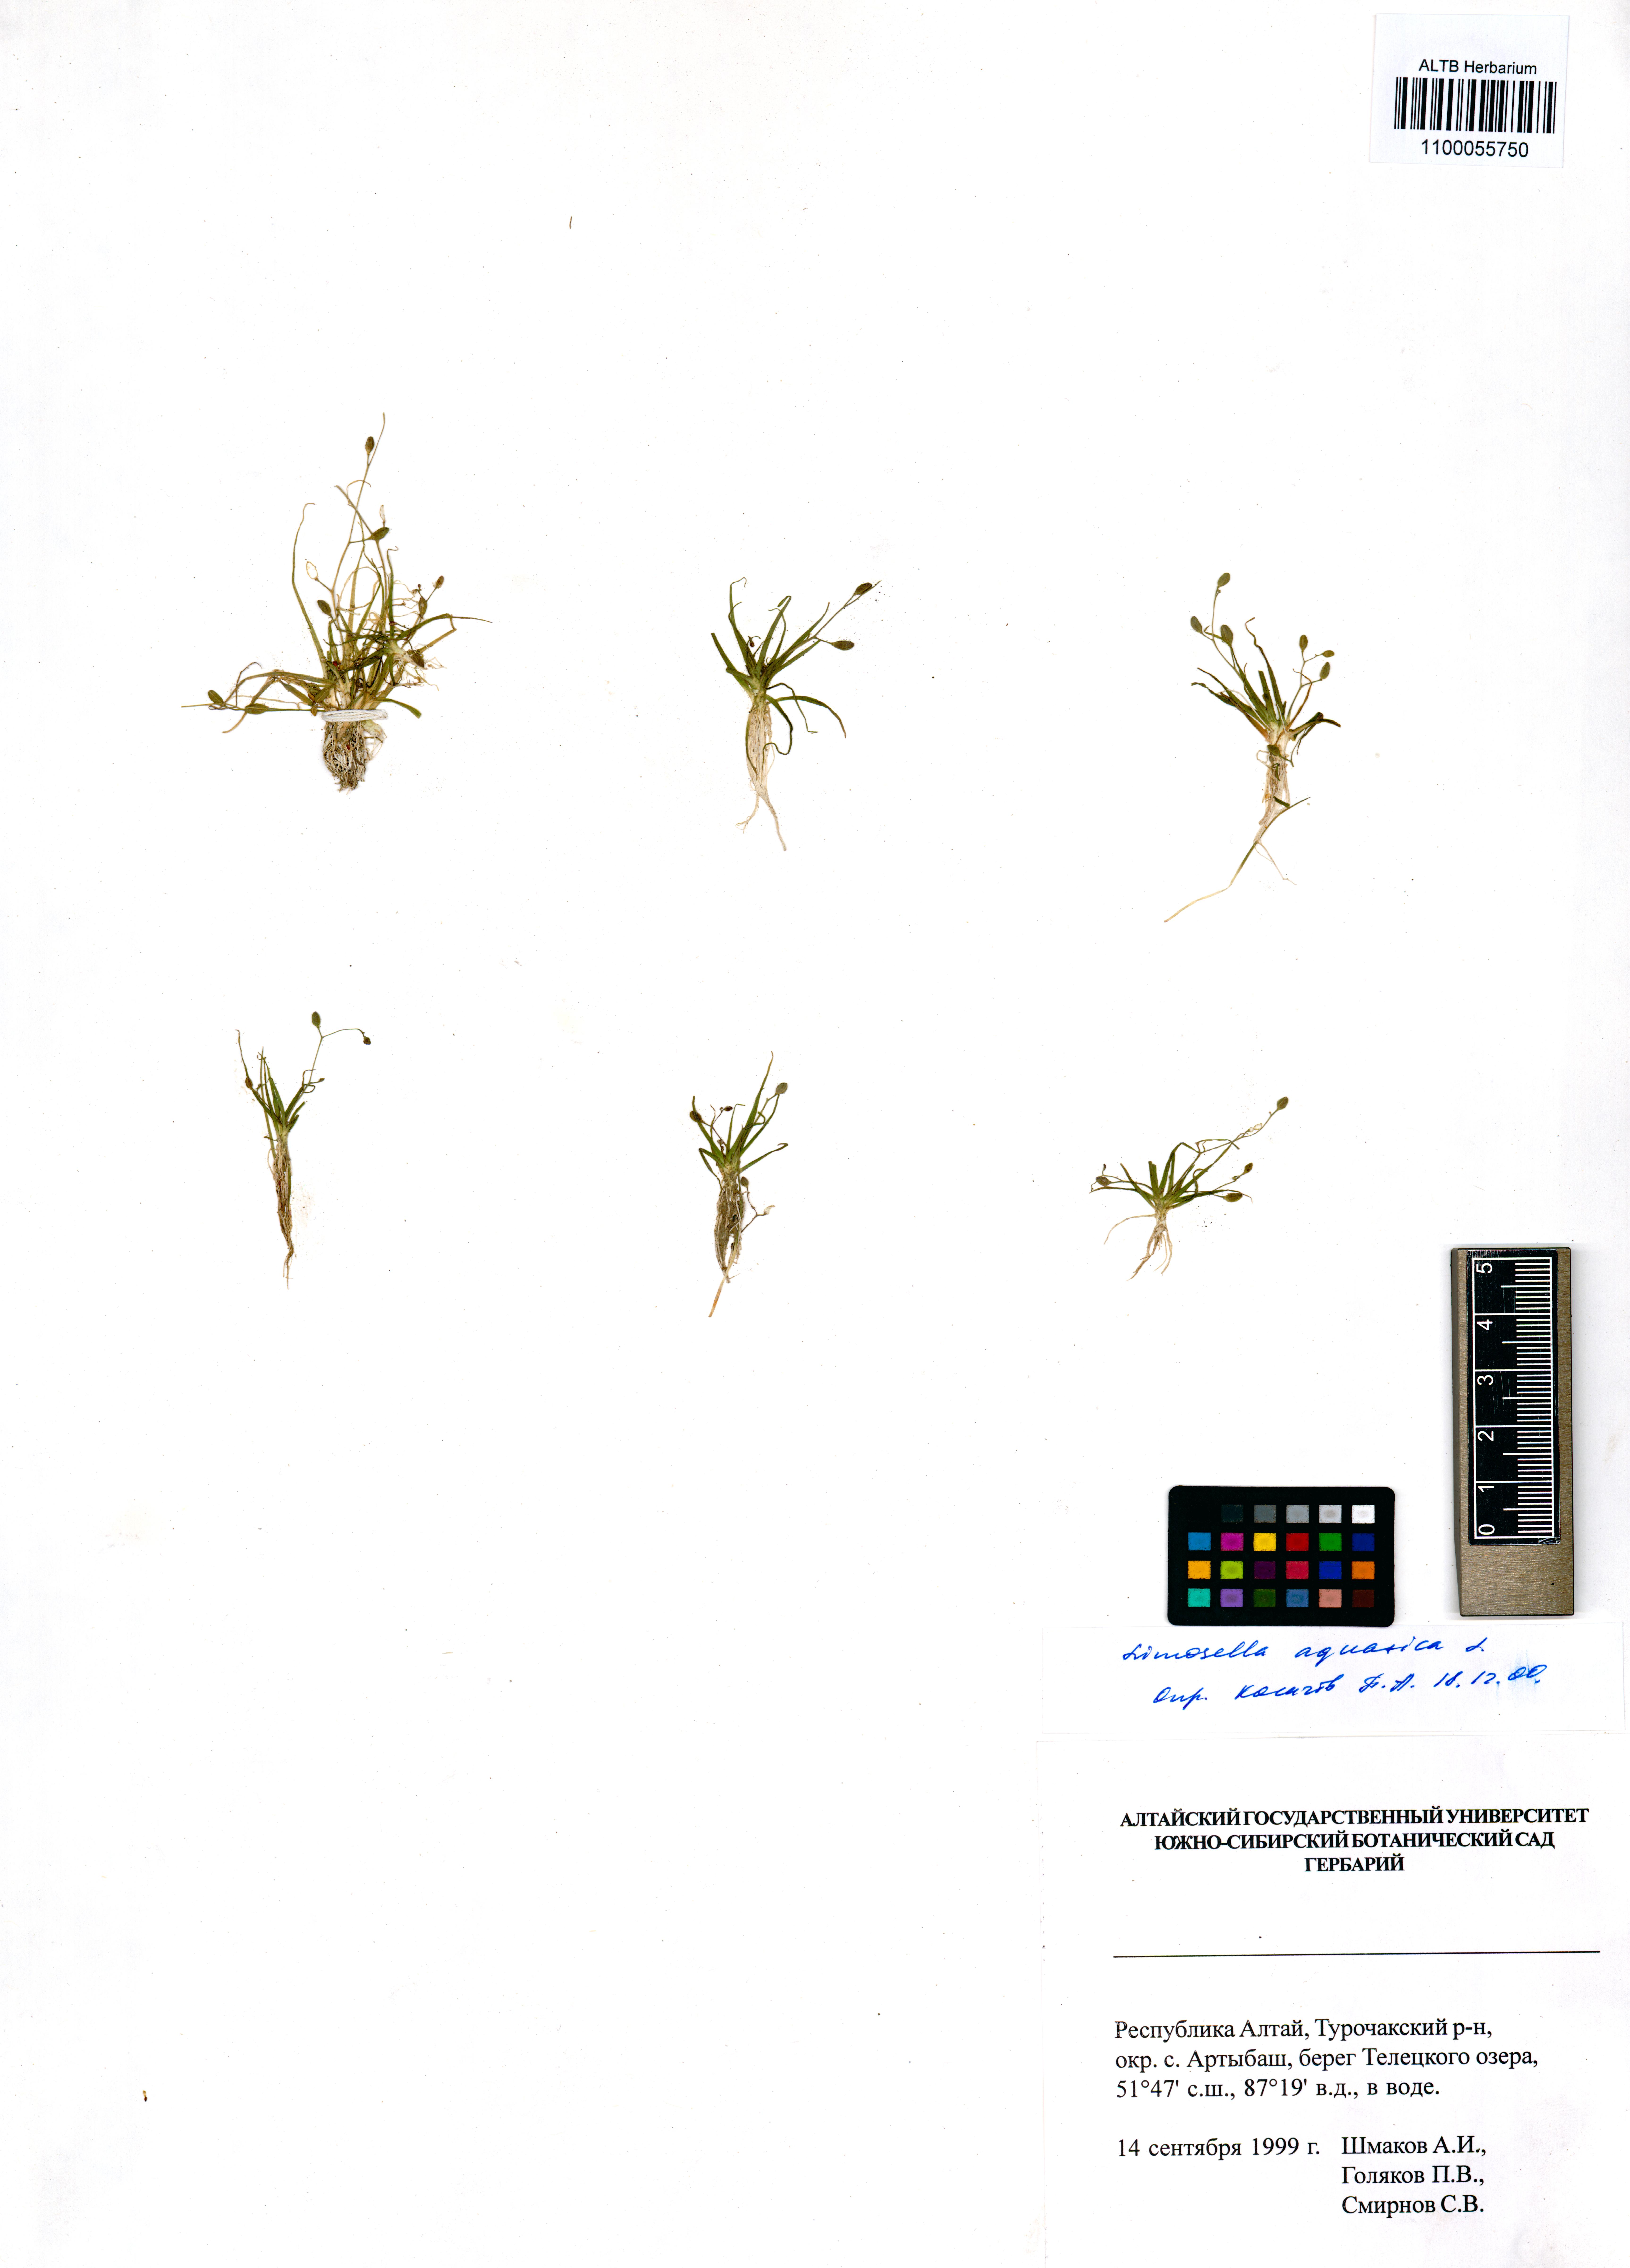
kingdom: Plantae
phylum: Tracheophyta
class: Magnoliopsida
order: Lamiales
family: Scrophulariaceae
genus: Limosella
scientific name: Limosella aquatica
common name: Mudwort
